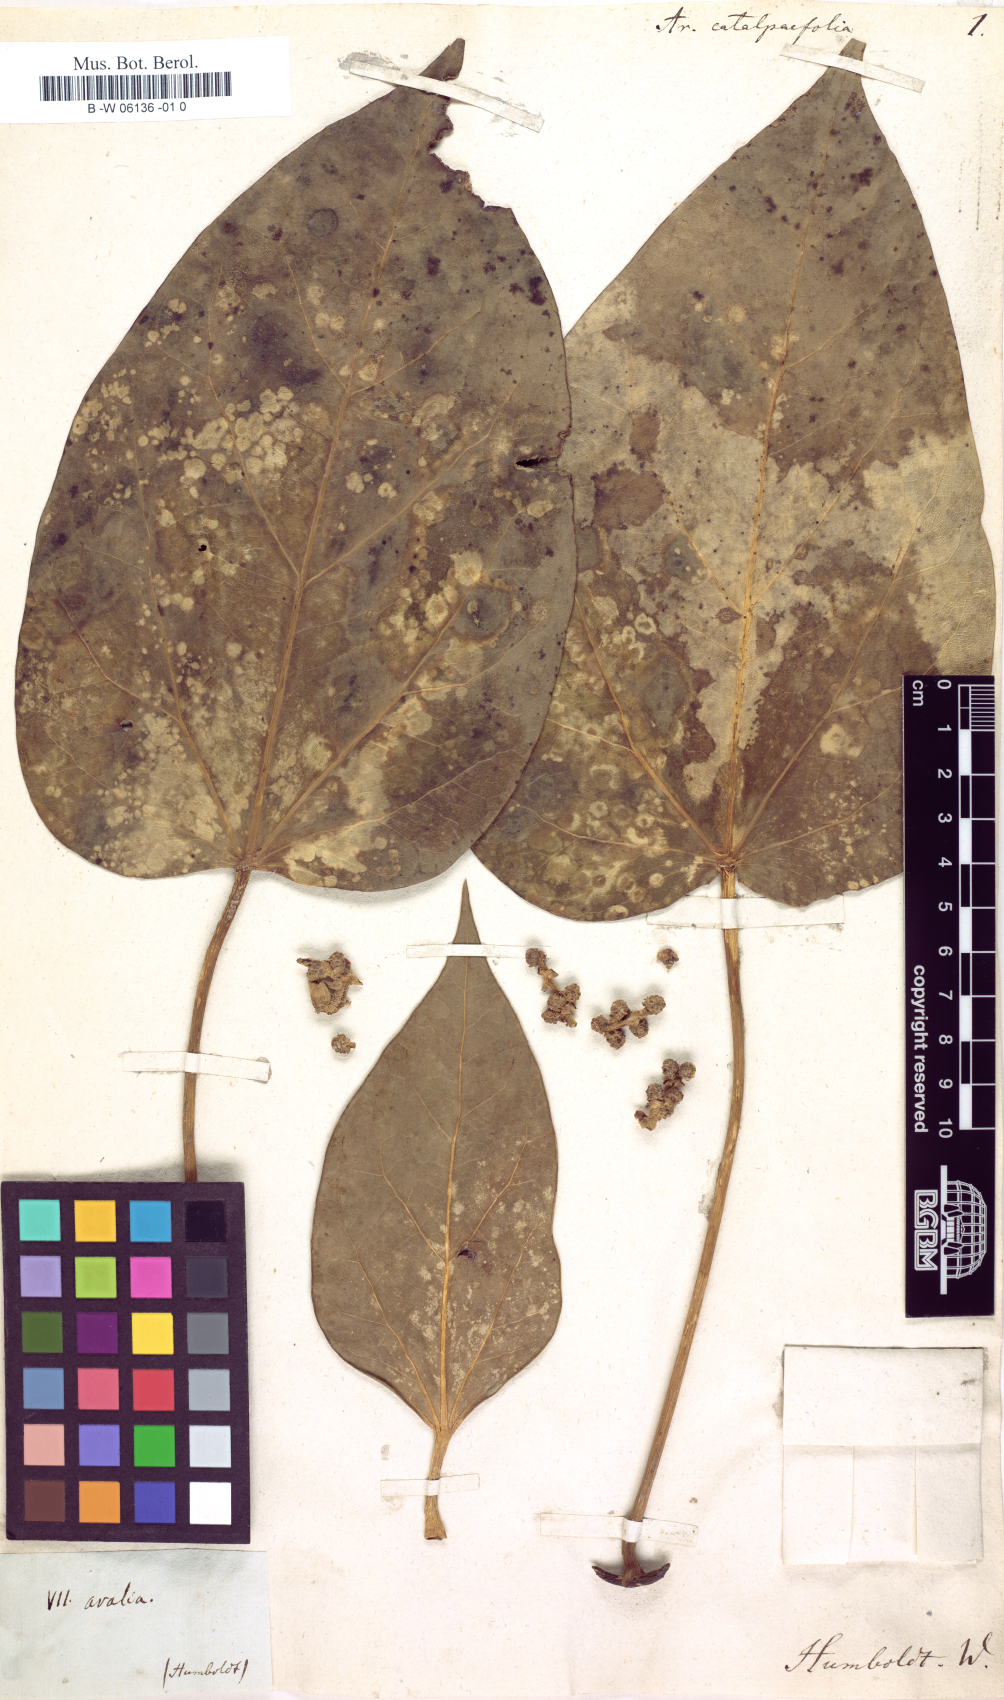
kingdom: Plantae
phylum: Tracheophyta
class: Magnoliopsida
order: Apiales
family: Araliaceae
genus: Oreopanax
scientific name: Oreopanax catalpifolius
